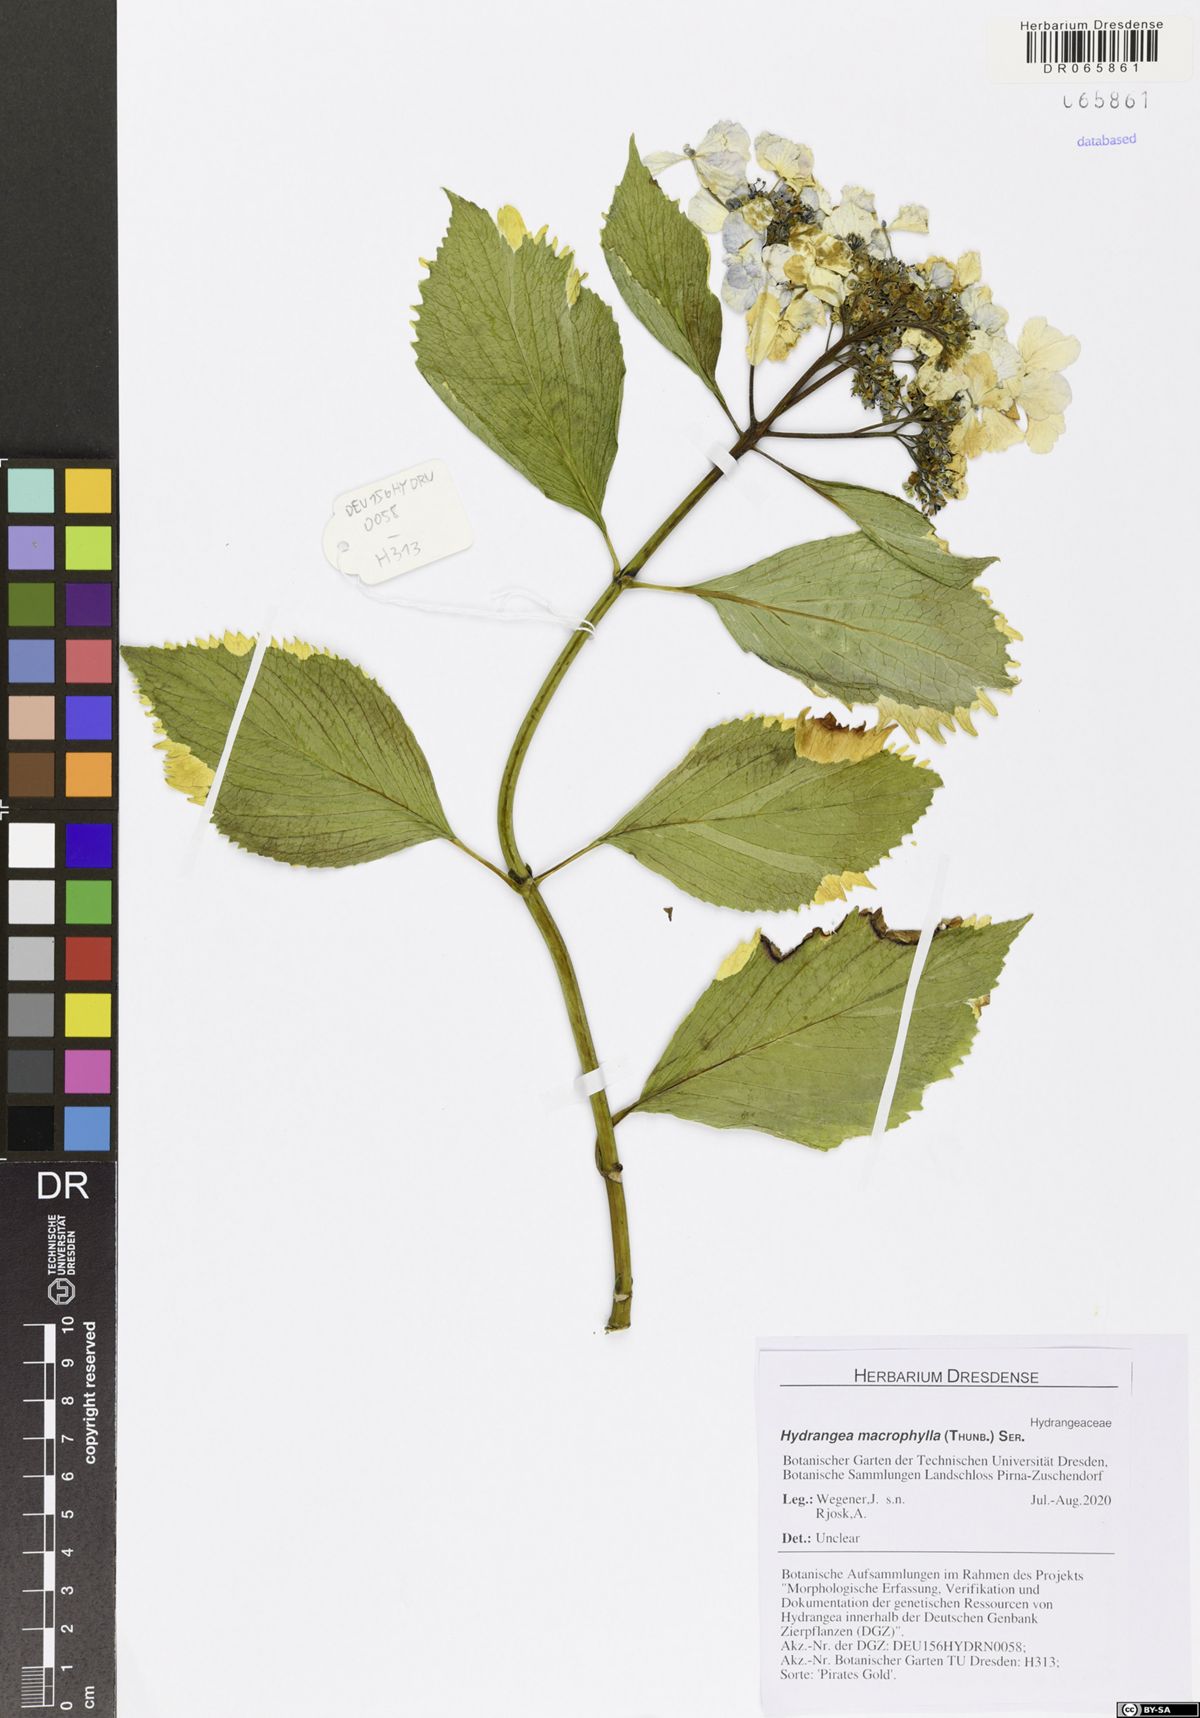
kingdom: Plantae
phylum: Tracheophyta
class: Magnoliopsida
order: Cornales
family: Hydrangeaceae
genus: Hydrangea
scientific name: Hydrangea macrophylla
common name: Hydrangea
